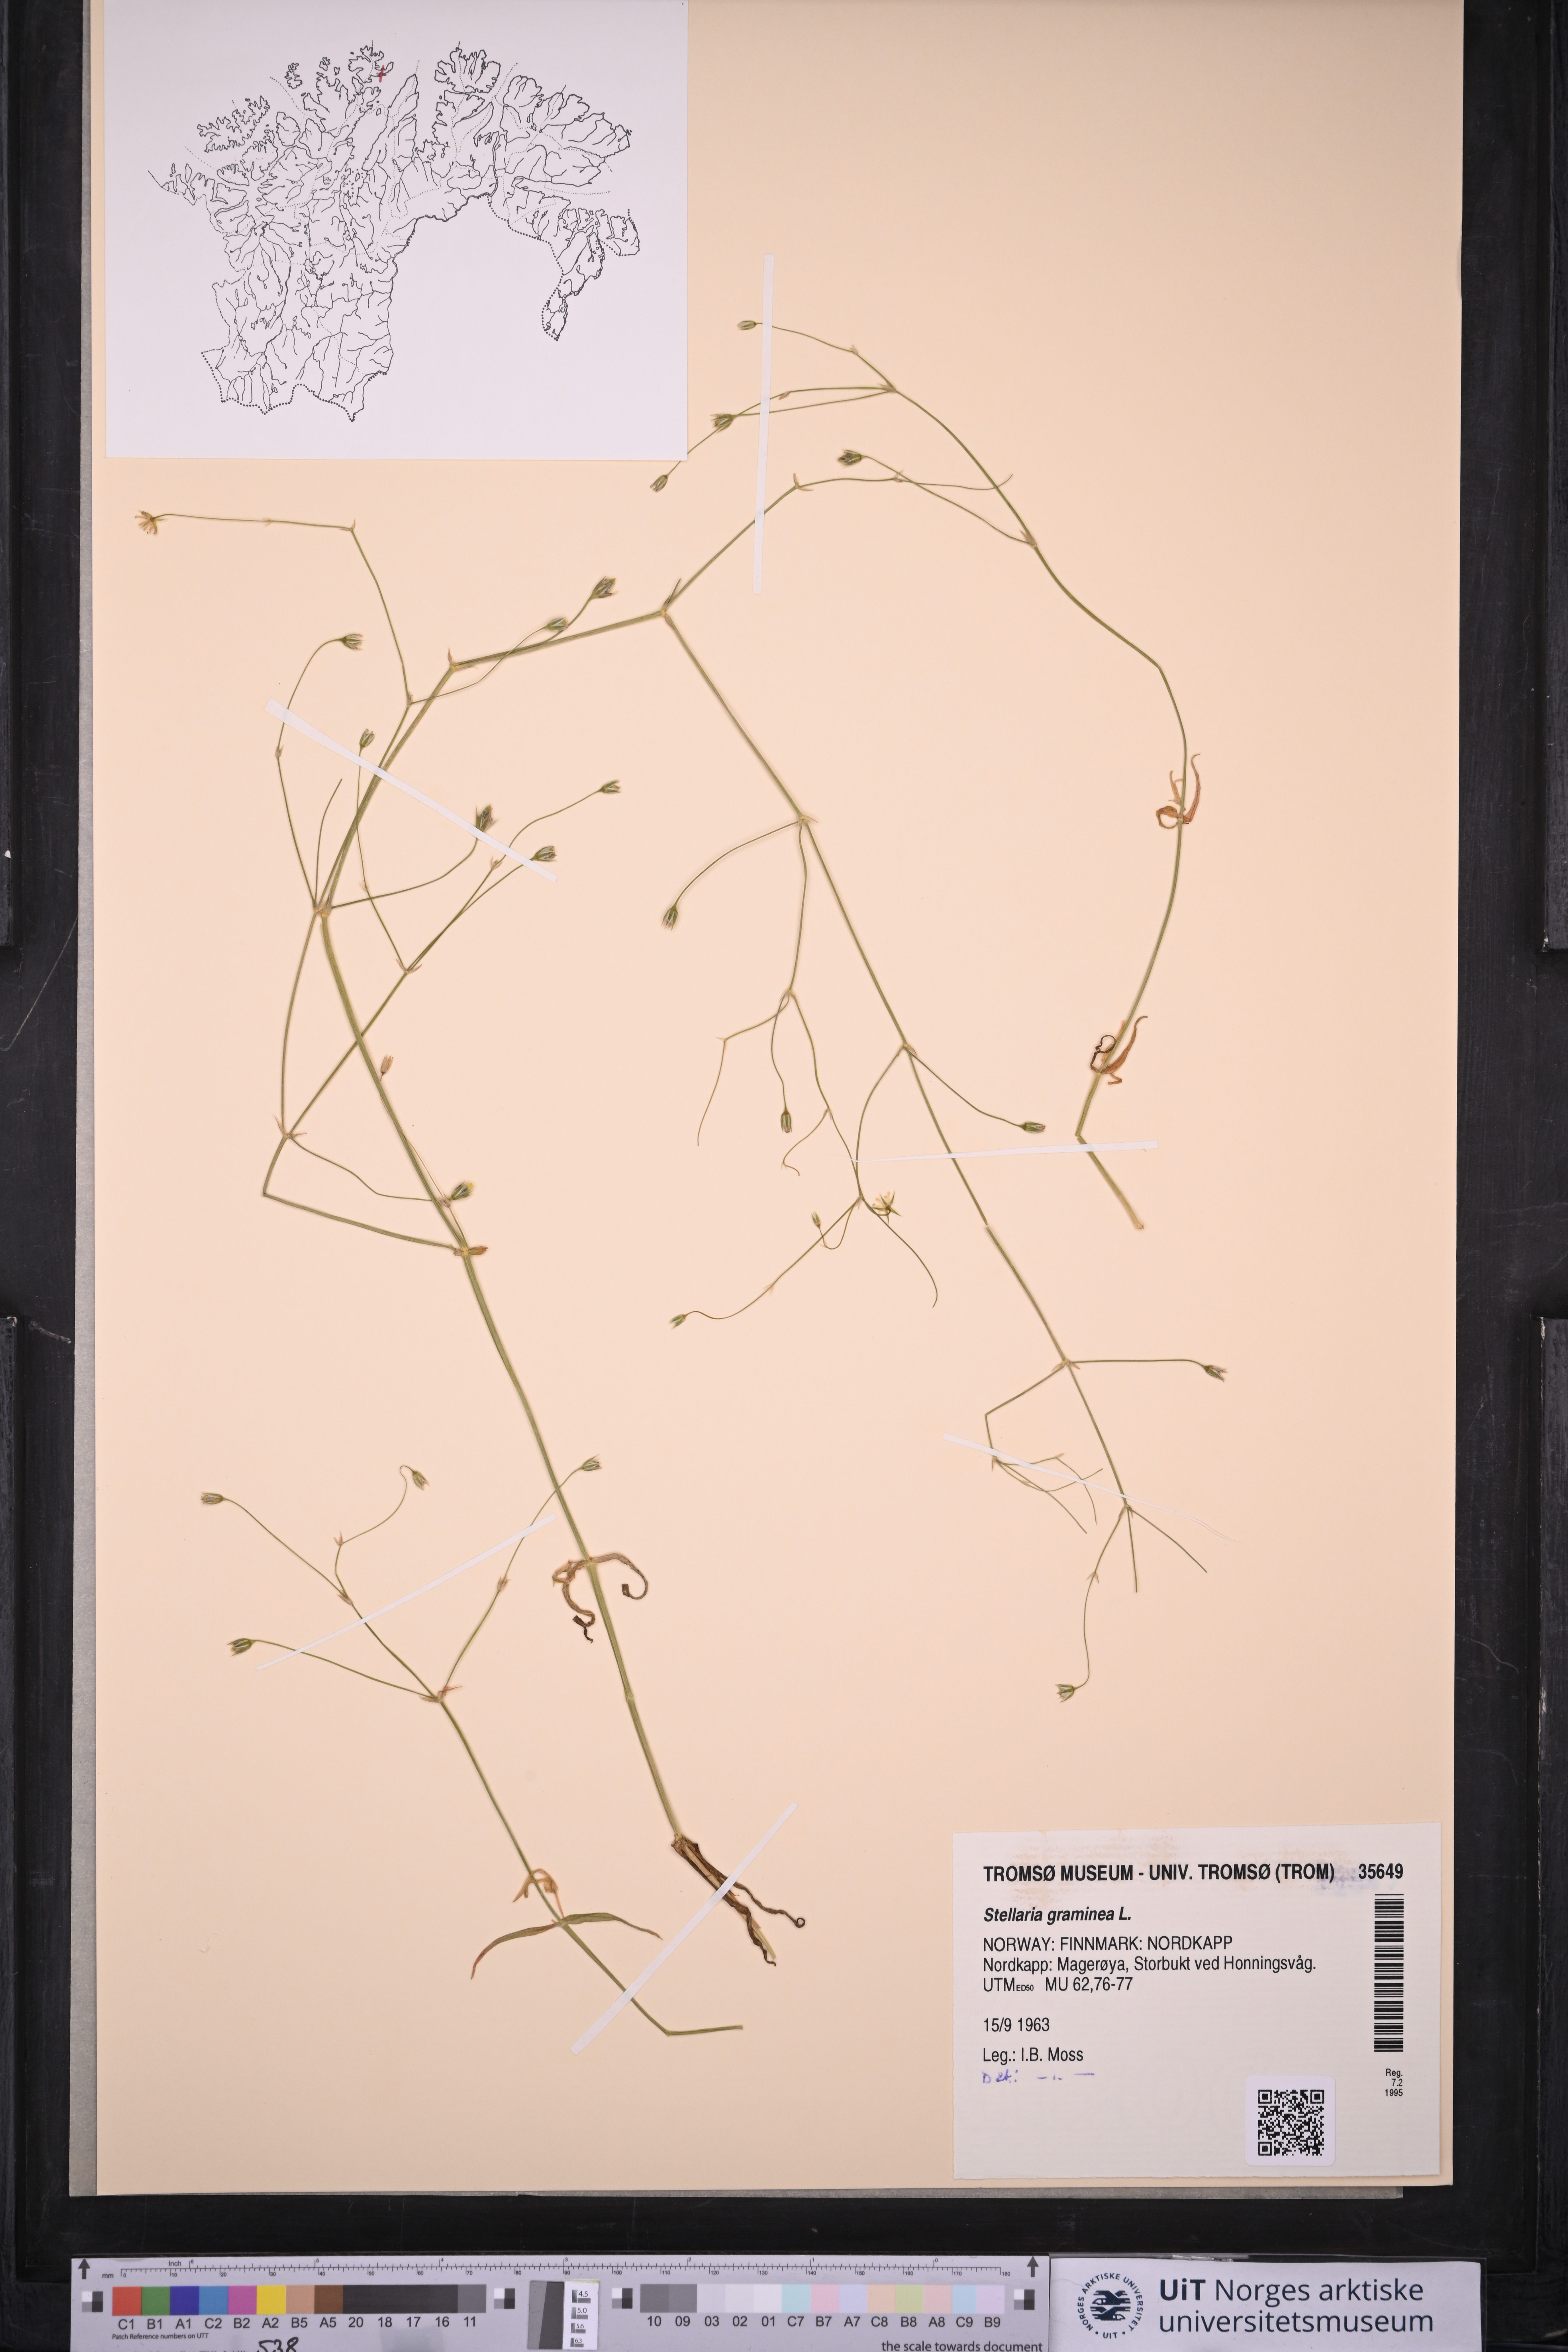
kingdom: Plantae
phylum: Tracheophyta
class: Magnoliopsida
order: Caryophyllales
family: Caryophyllaceae
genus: Stellaria
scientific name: Stellaria graminea
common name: Grass-like starwort
